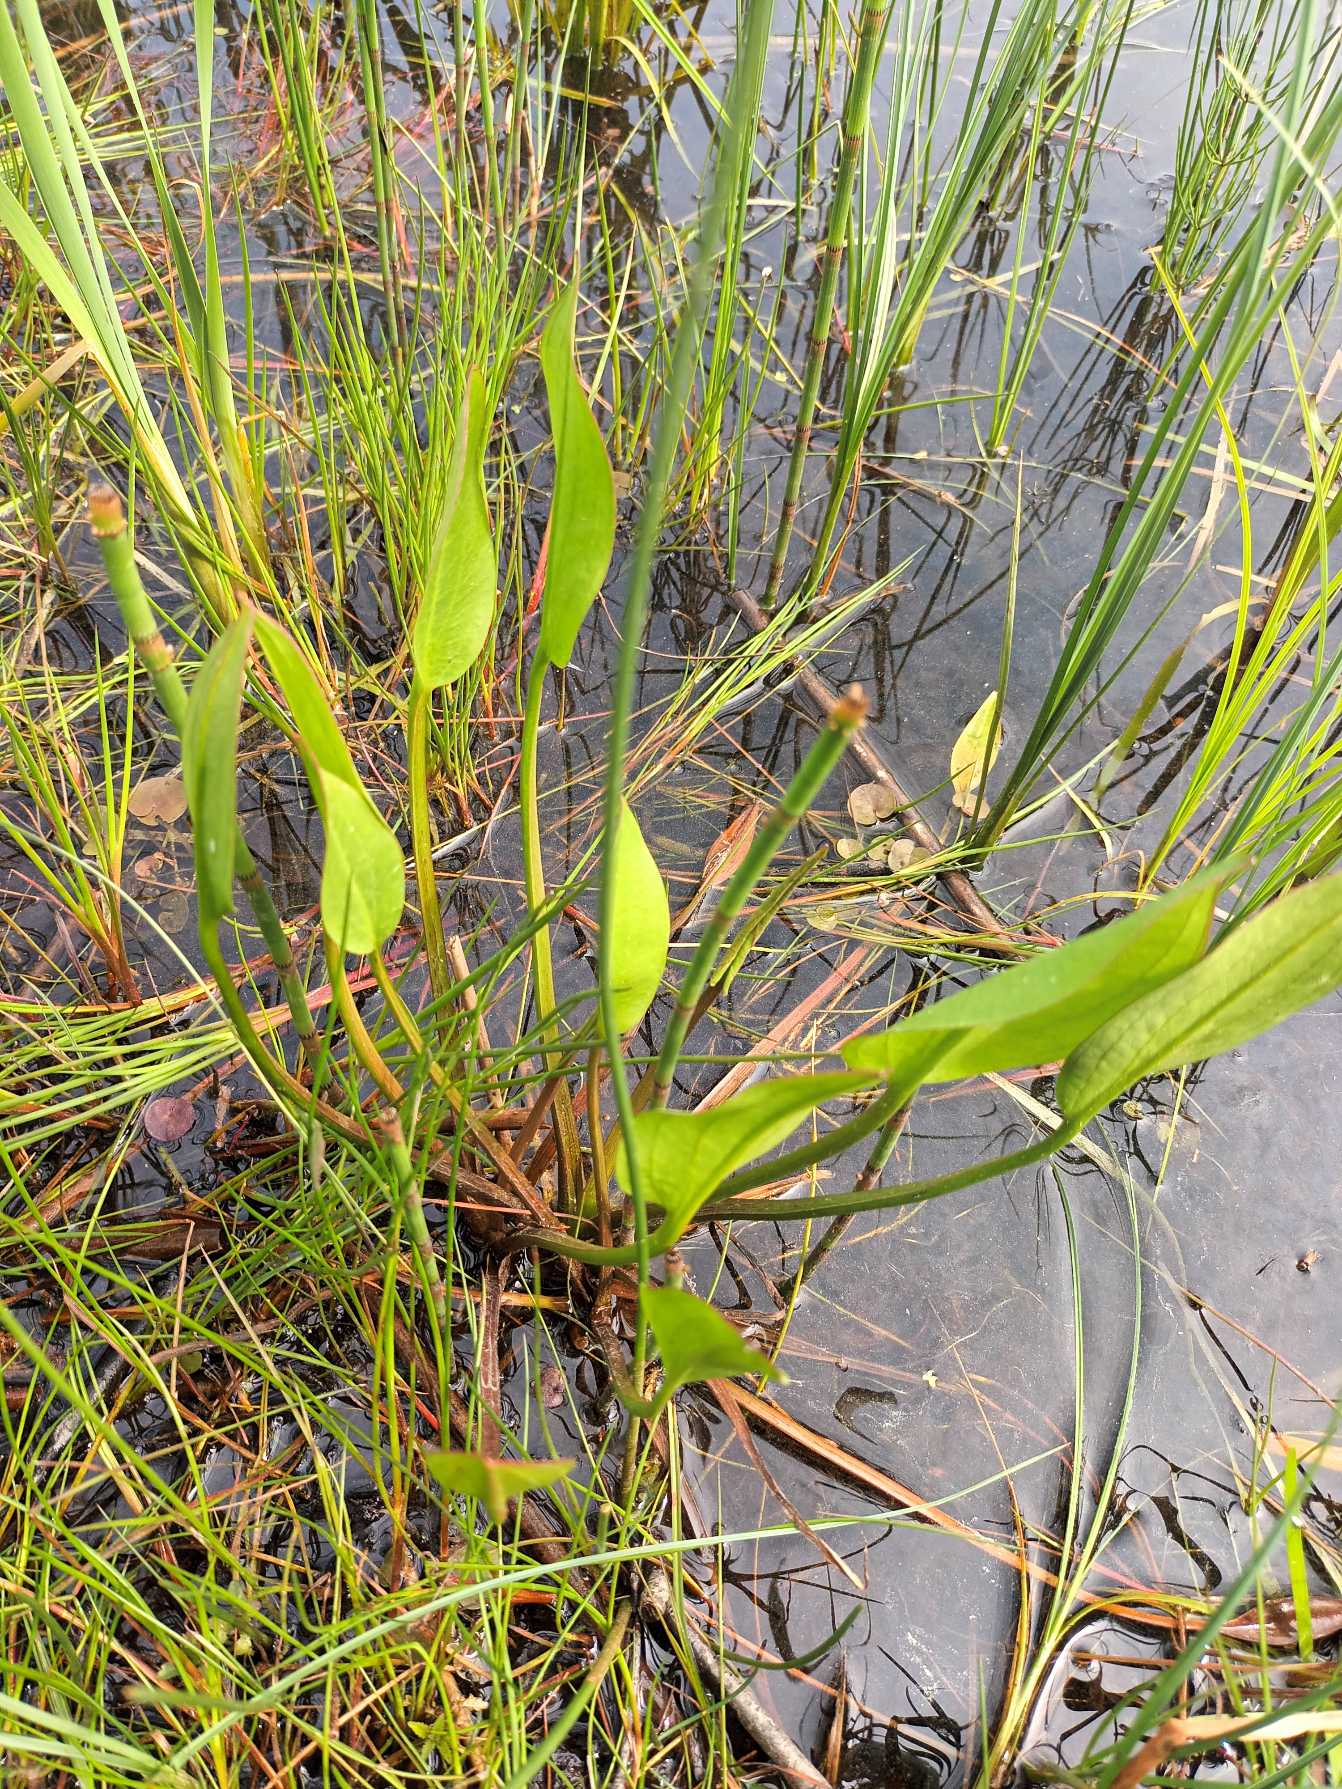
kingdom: Plantae
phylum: Tracheophyta
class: Liliopsida
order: Alismatales
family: Alismataceae
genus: Alisma
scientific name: Alisma plantago-aquatica
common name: Vejbred-skeblad
